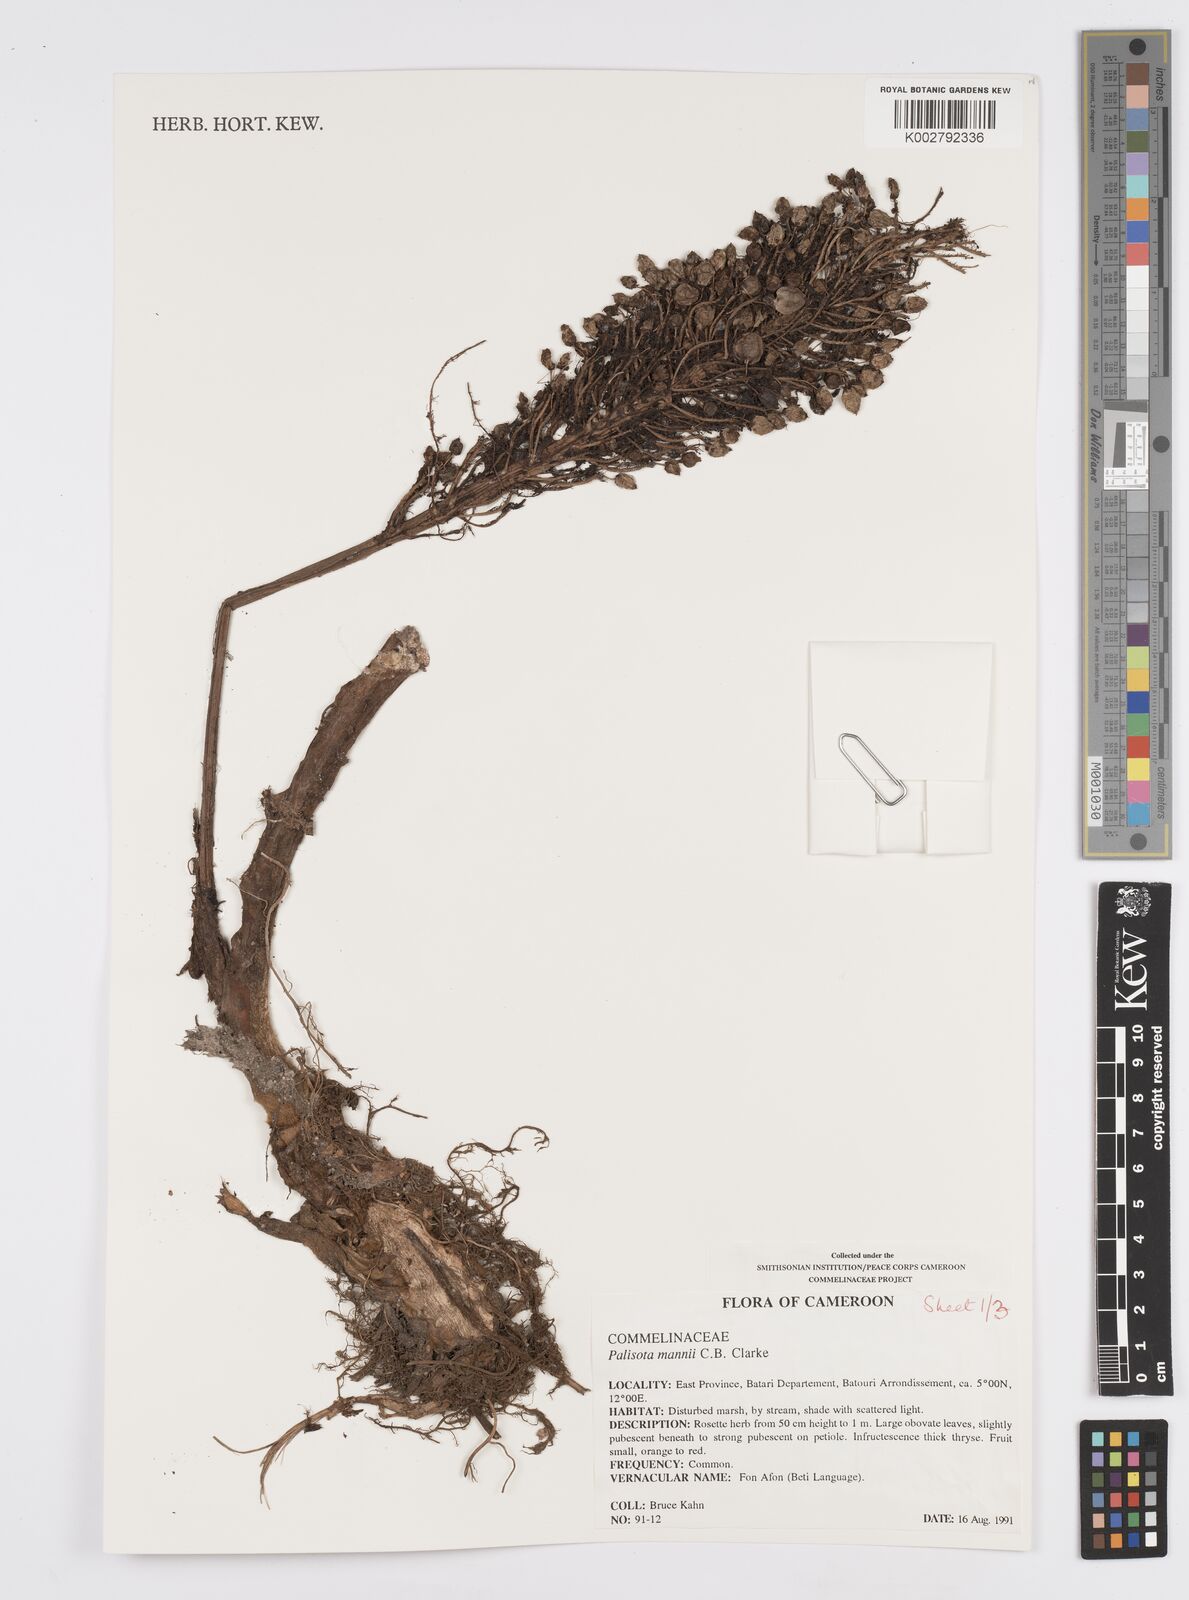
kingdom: Plantae
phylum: Tracheophyta
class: Liliopsida
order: Commelinales
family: Commelinaceae
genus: Palisota
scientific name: Palisota mannii
